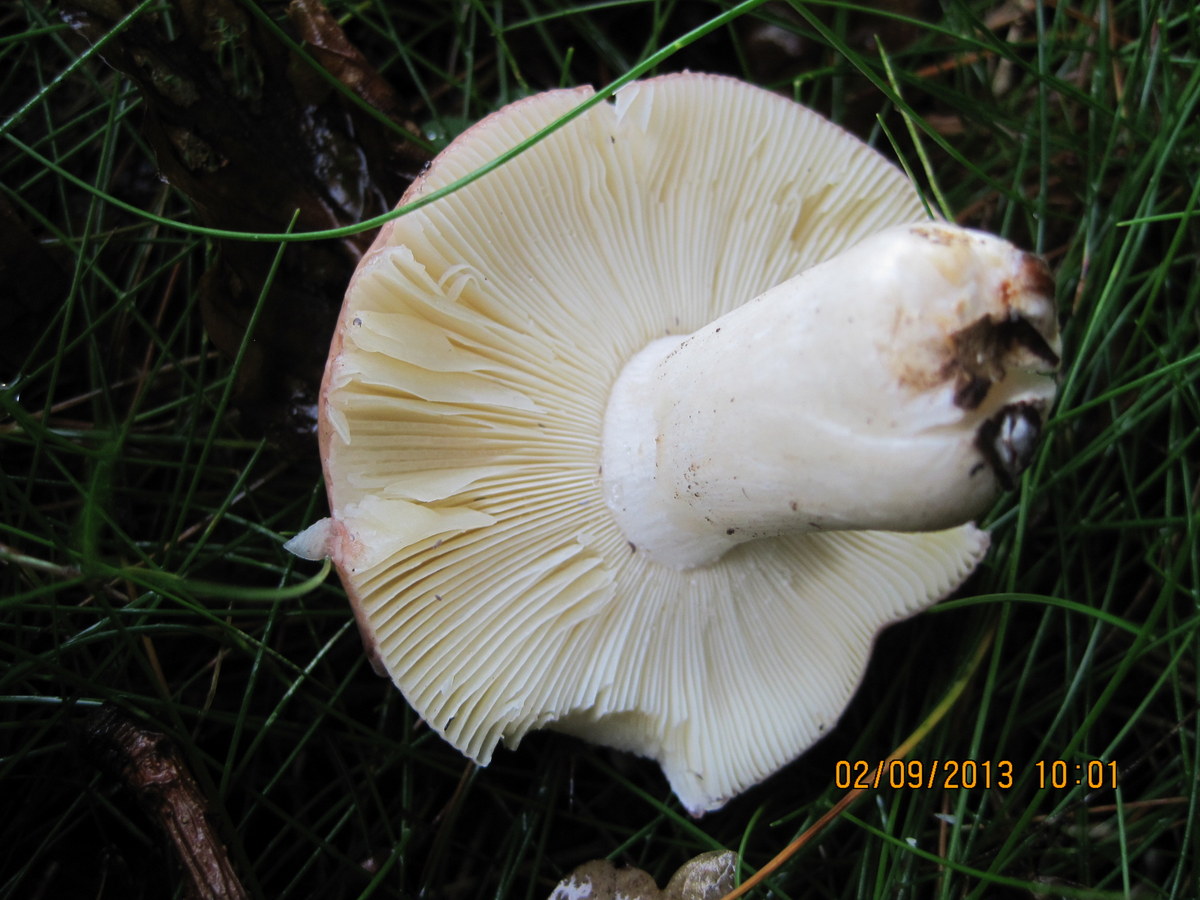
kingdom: Fungi
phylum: Basidiomycota
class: Agaricomycetes
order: Russulales
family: Russulaceae
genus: Russula
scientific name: Russula veternosa
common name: blødkødet skørhat
